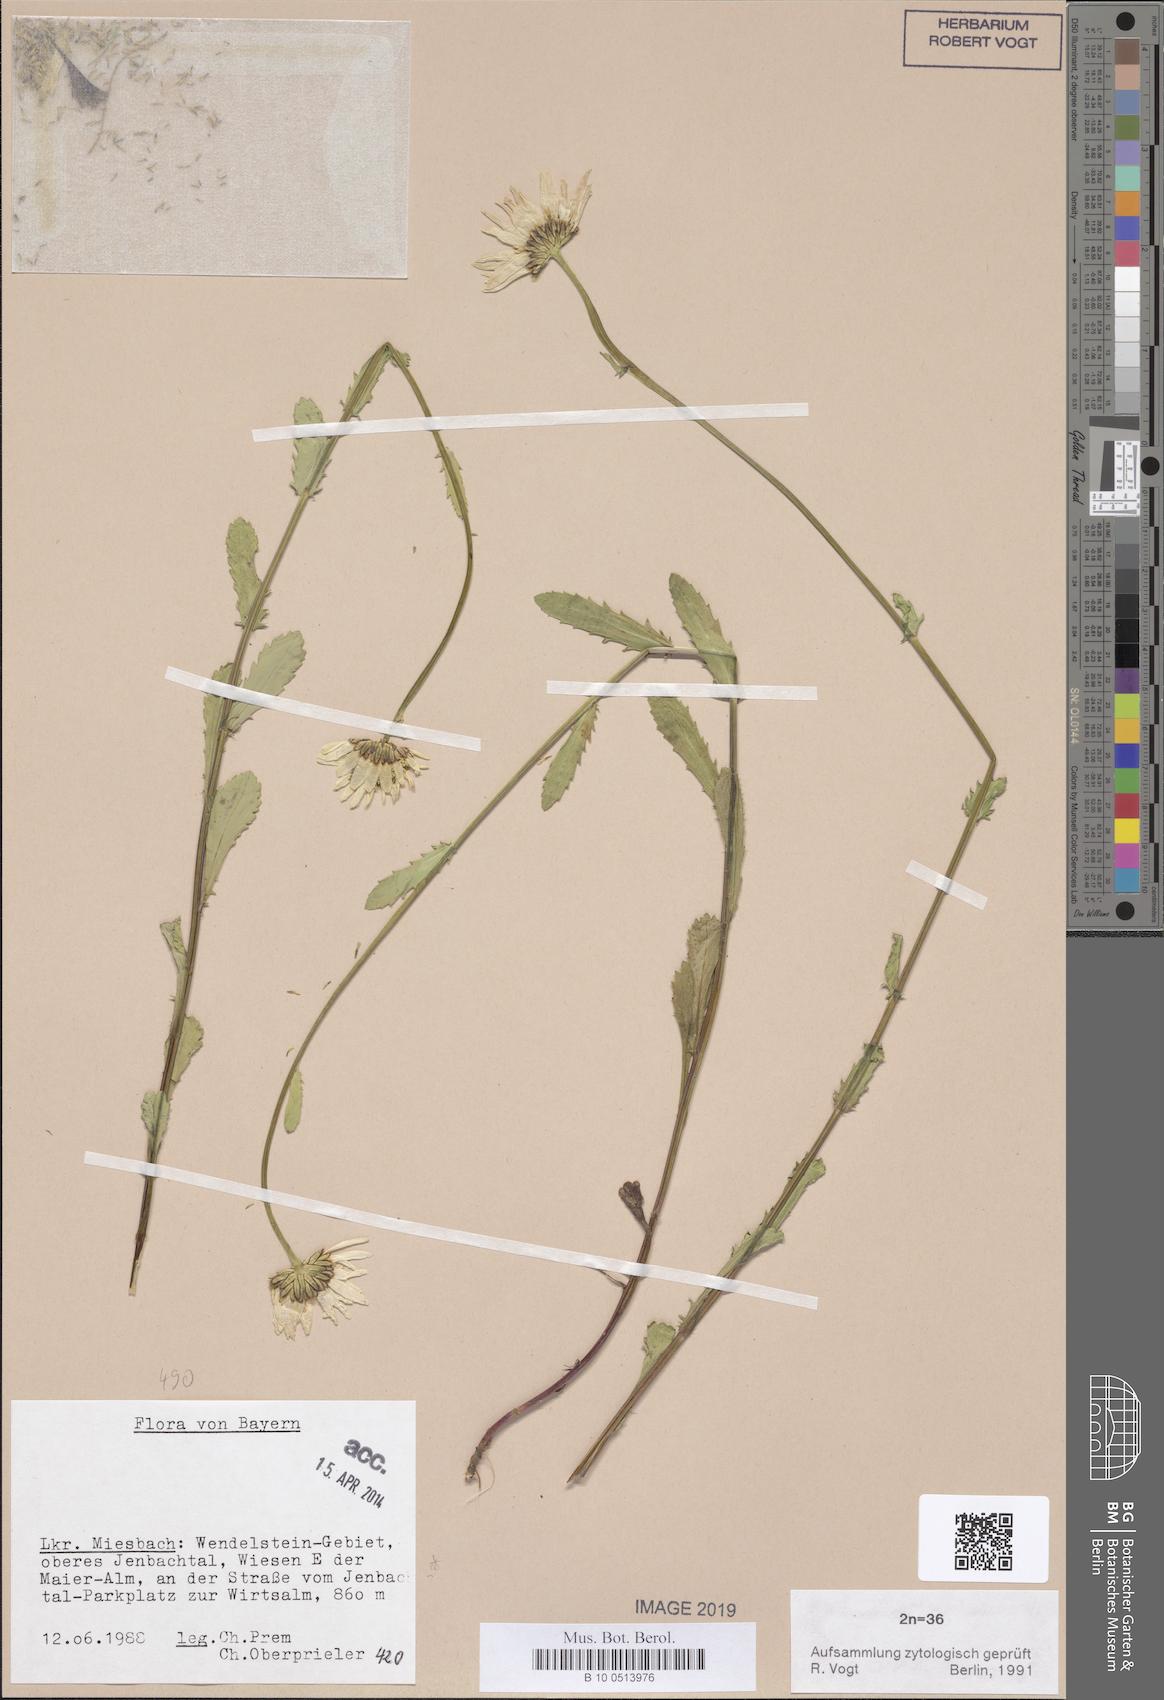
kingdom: Plantae
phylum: Tracheophyta
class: Magnoliopsida
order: Asterales
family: Asteraceae
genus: Leucanthemum
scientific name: Leucanthemum ircutianum
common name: Daisy
